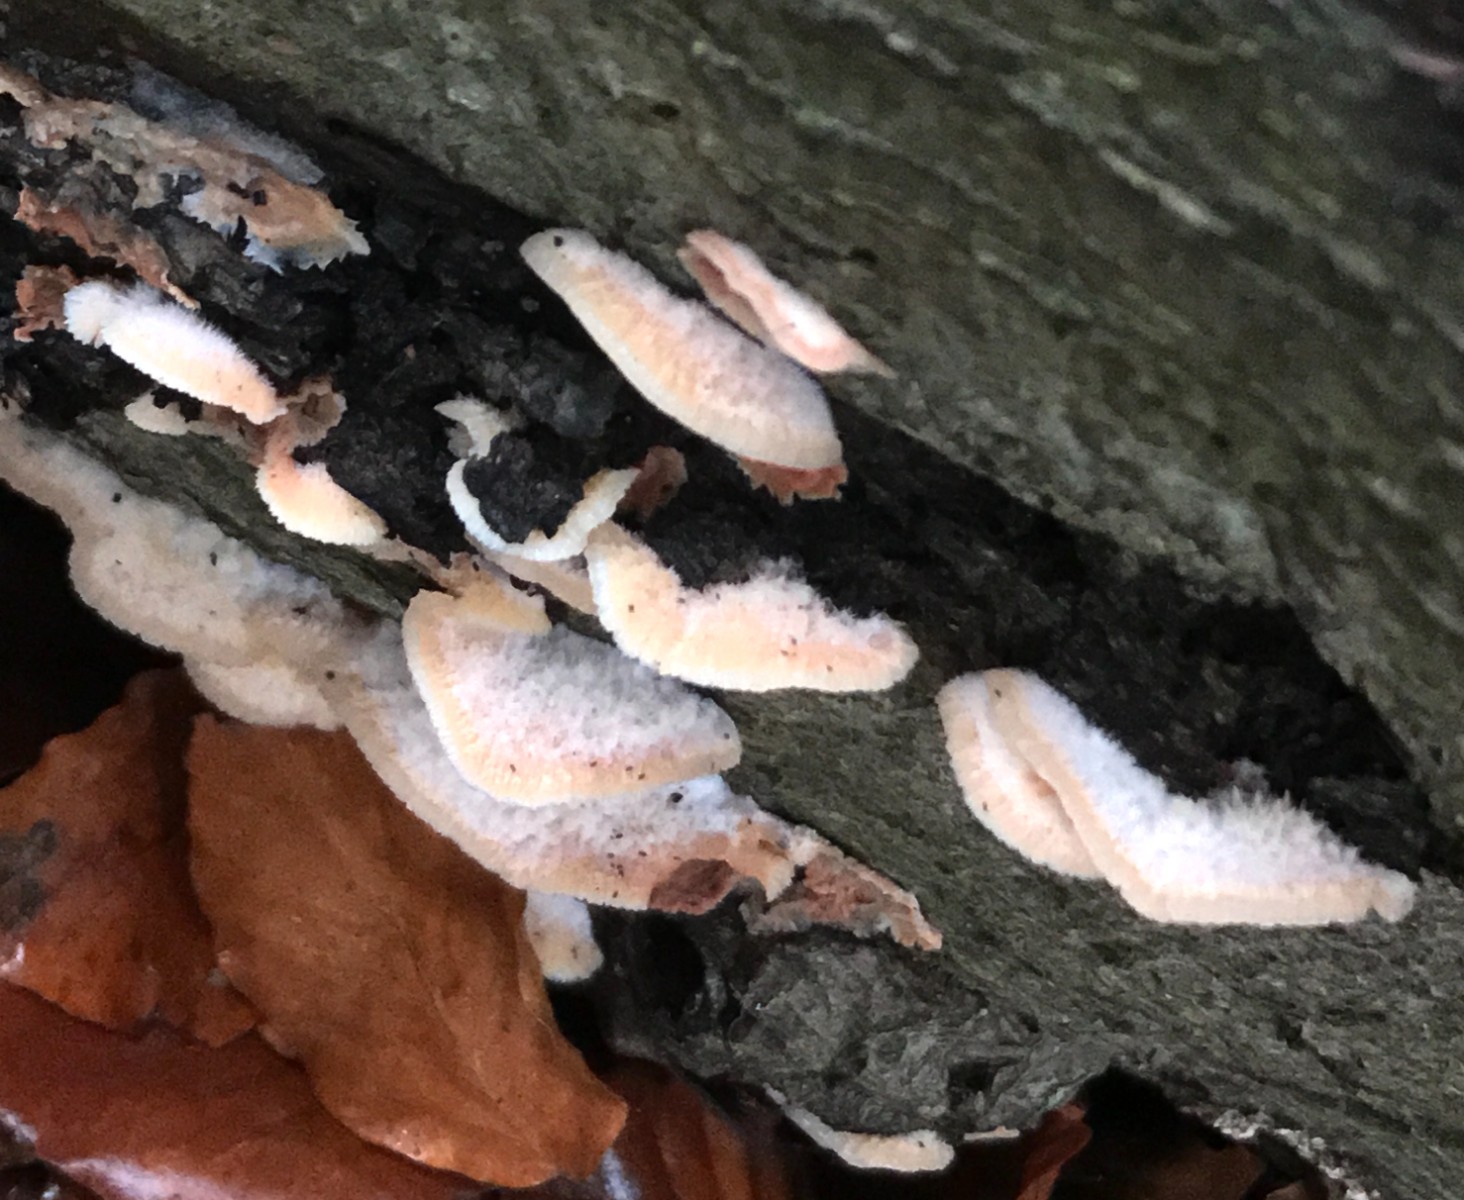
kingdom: Fungi
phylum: Basidiomycota
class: Agaricomycetes
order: Polyporales
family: Meruliaceae
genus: Phlebia
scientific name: Phlebia tremellosa
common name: bævrende åresvamp
